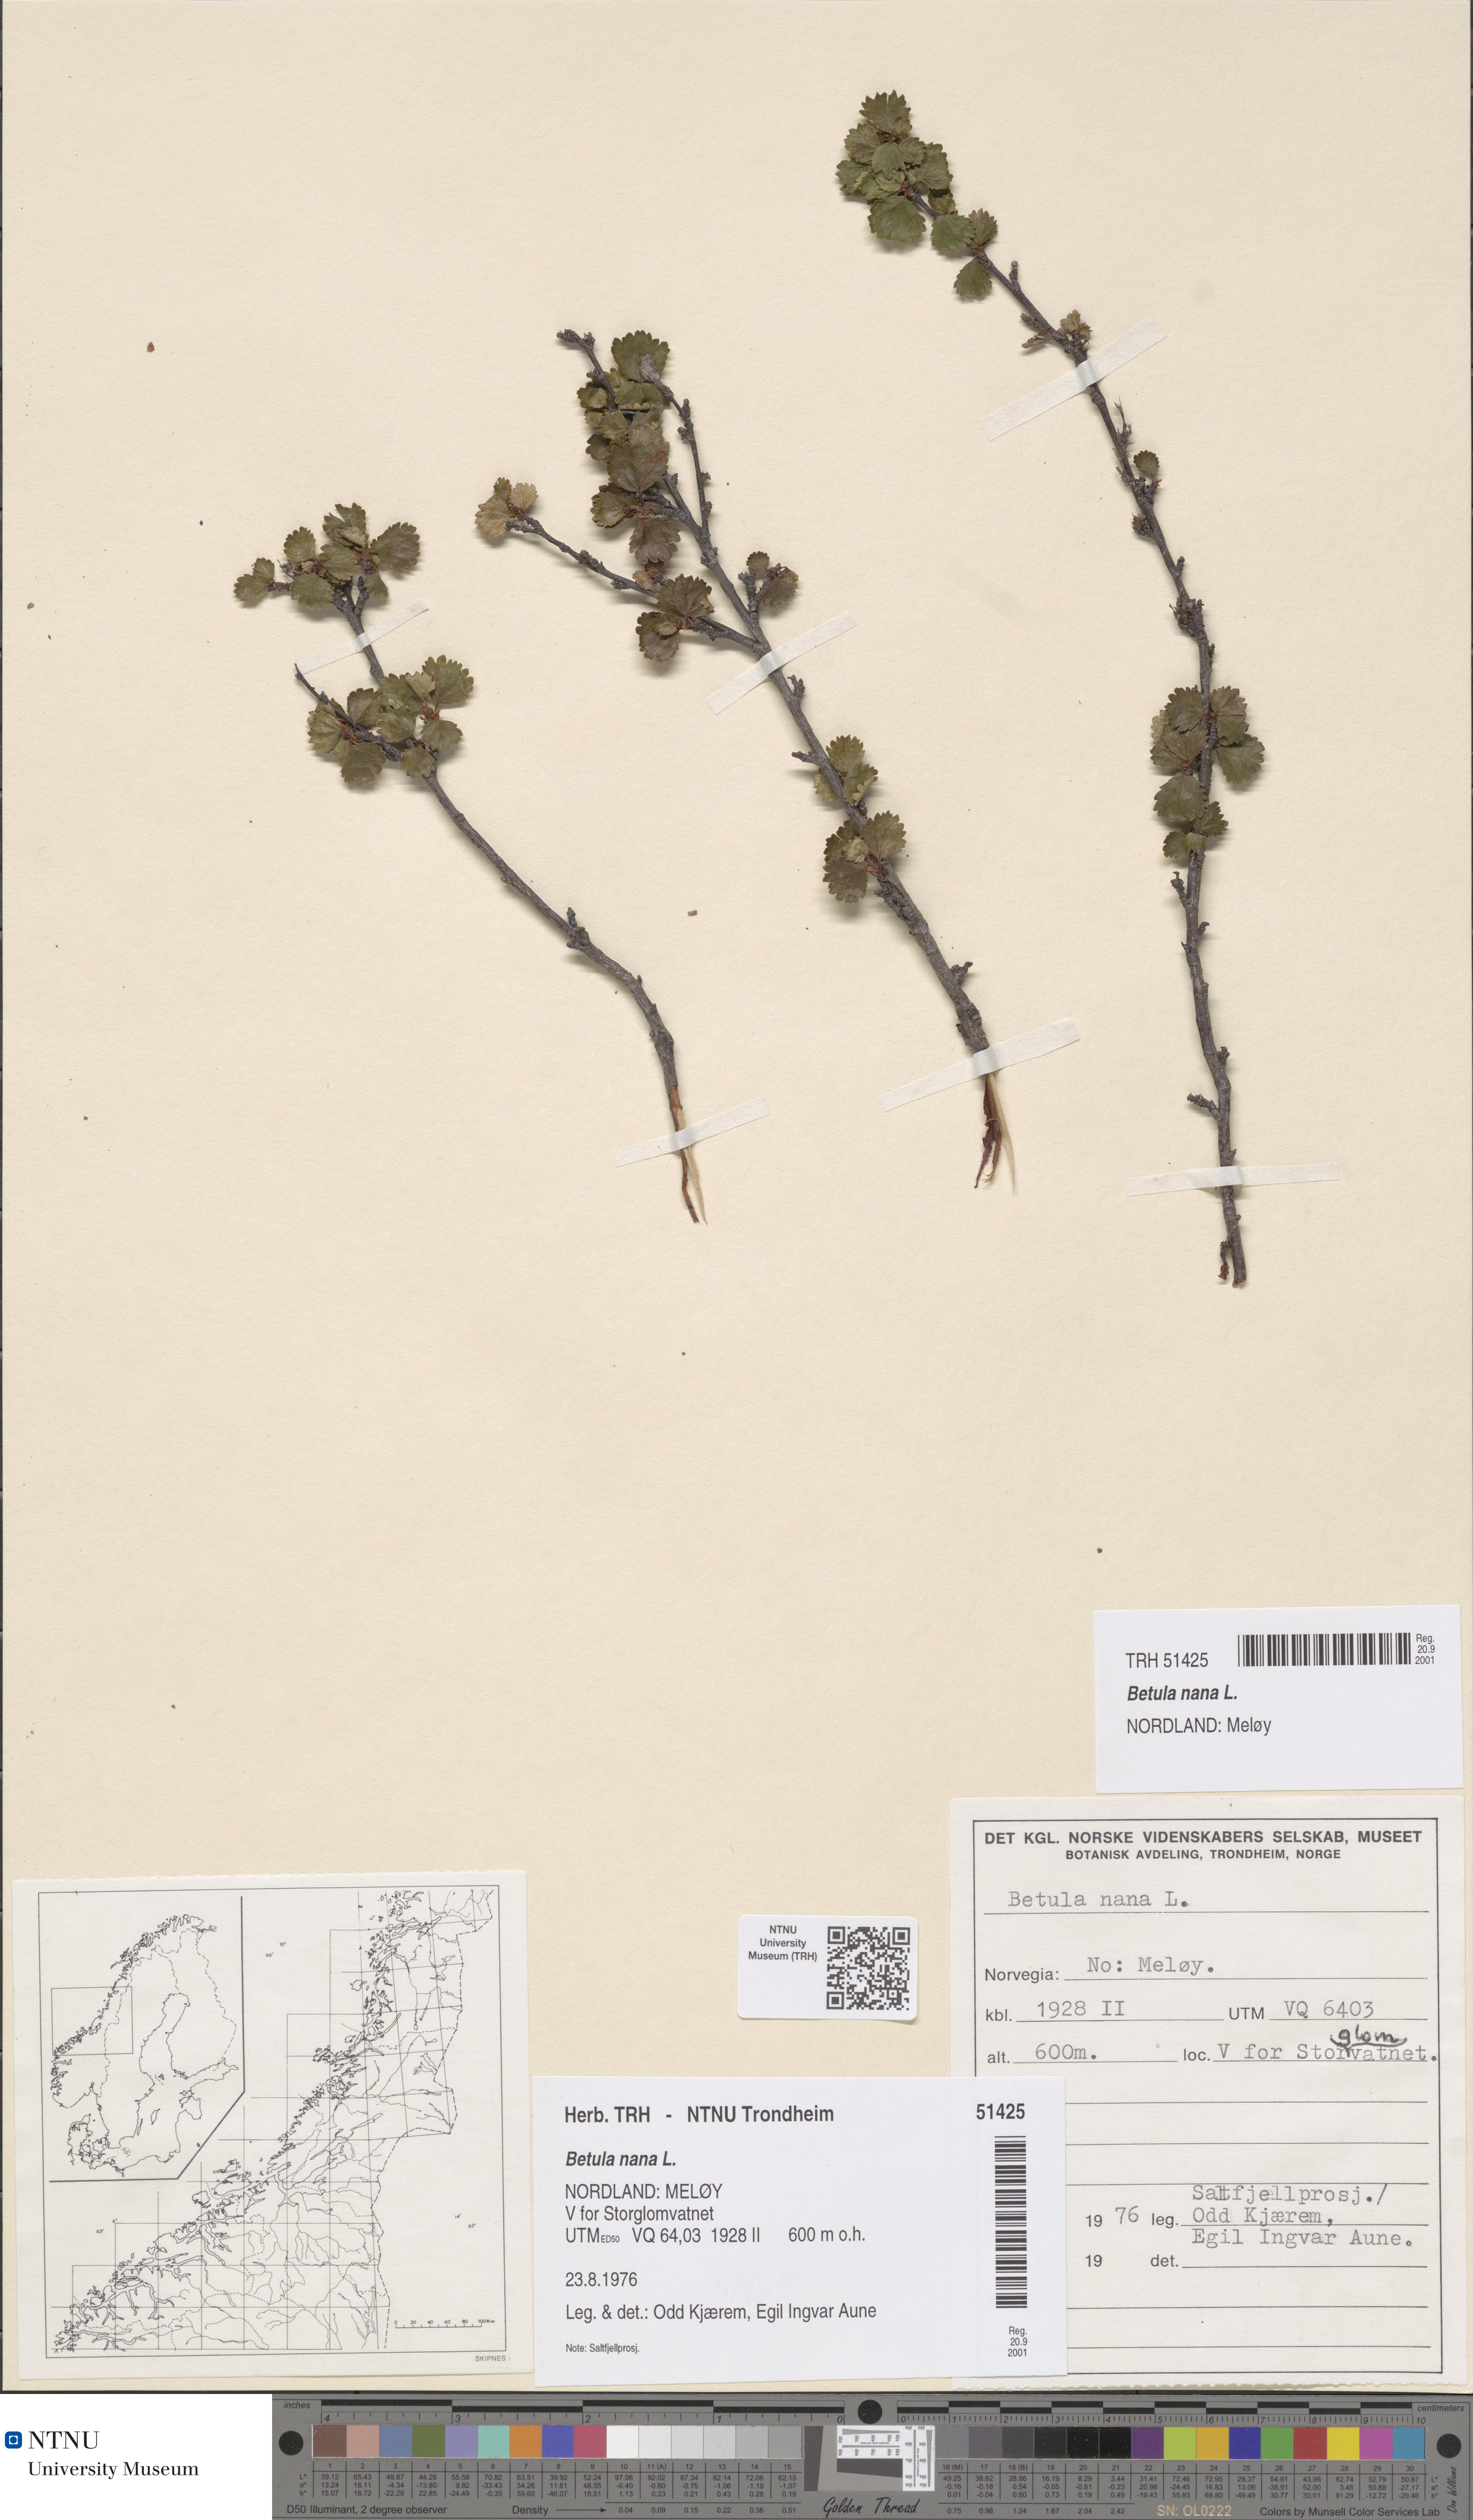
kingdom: Plantae
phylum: Tracheophyta
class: Magnoliopsida
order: Fagales
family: Betulaceae
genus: Betula
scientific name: Betula nana
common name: Arctic dwarf birch
